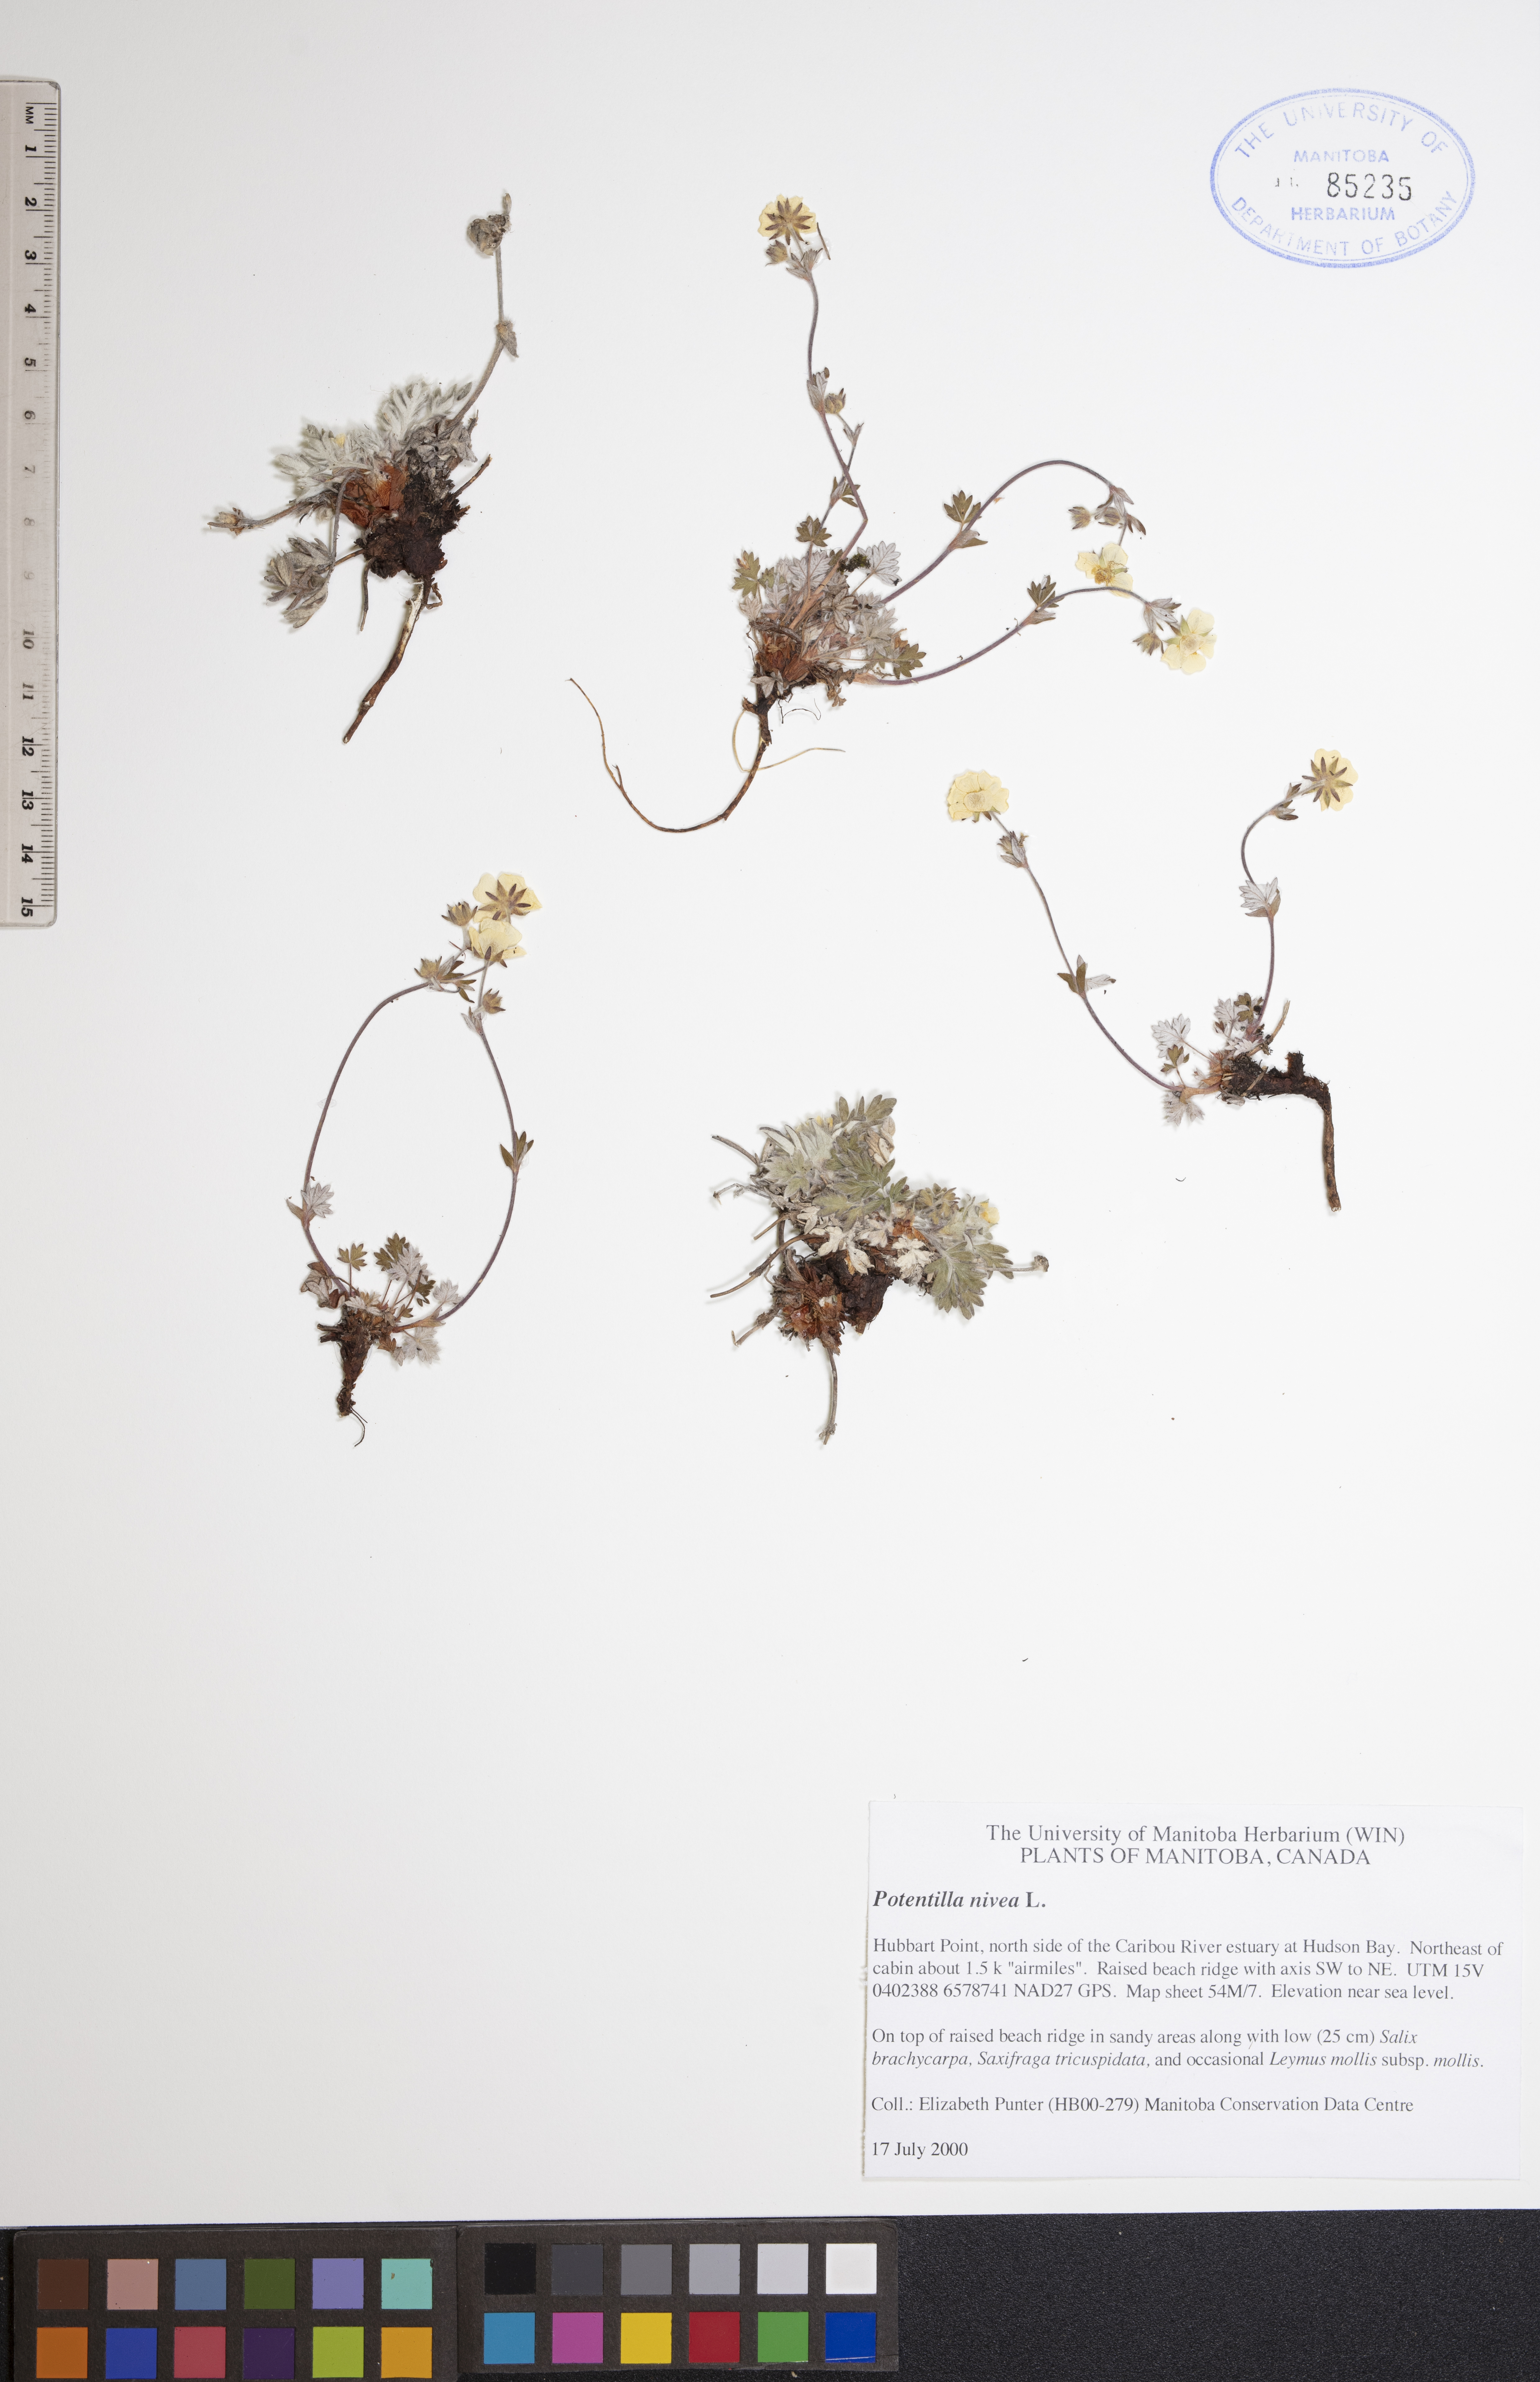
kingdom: Plantae
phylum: Tracheophyta
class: Magnoliopsida
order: Rosales
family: Rosaceae
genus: Potentilla
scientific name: Potentilla nivea
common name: Snow cinquefoil
